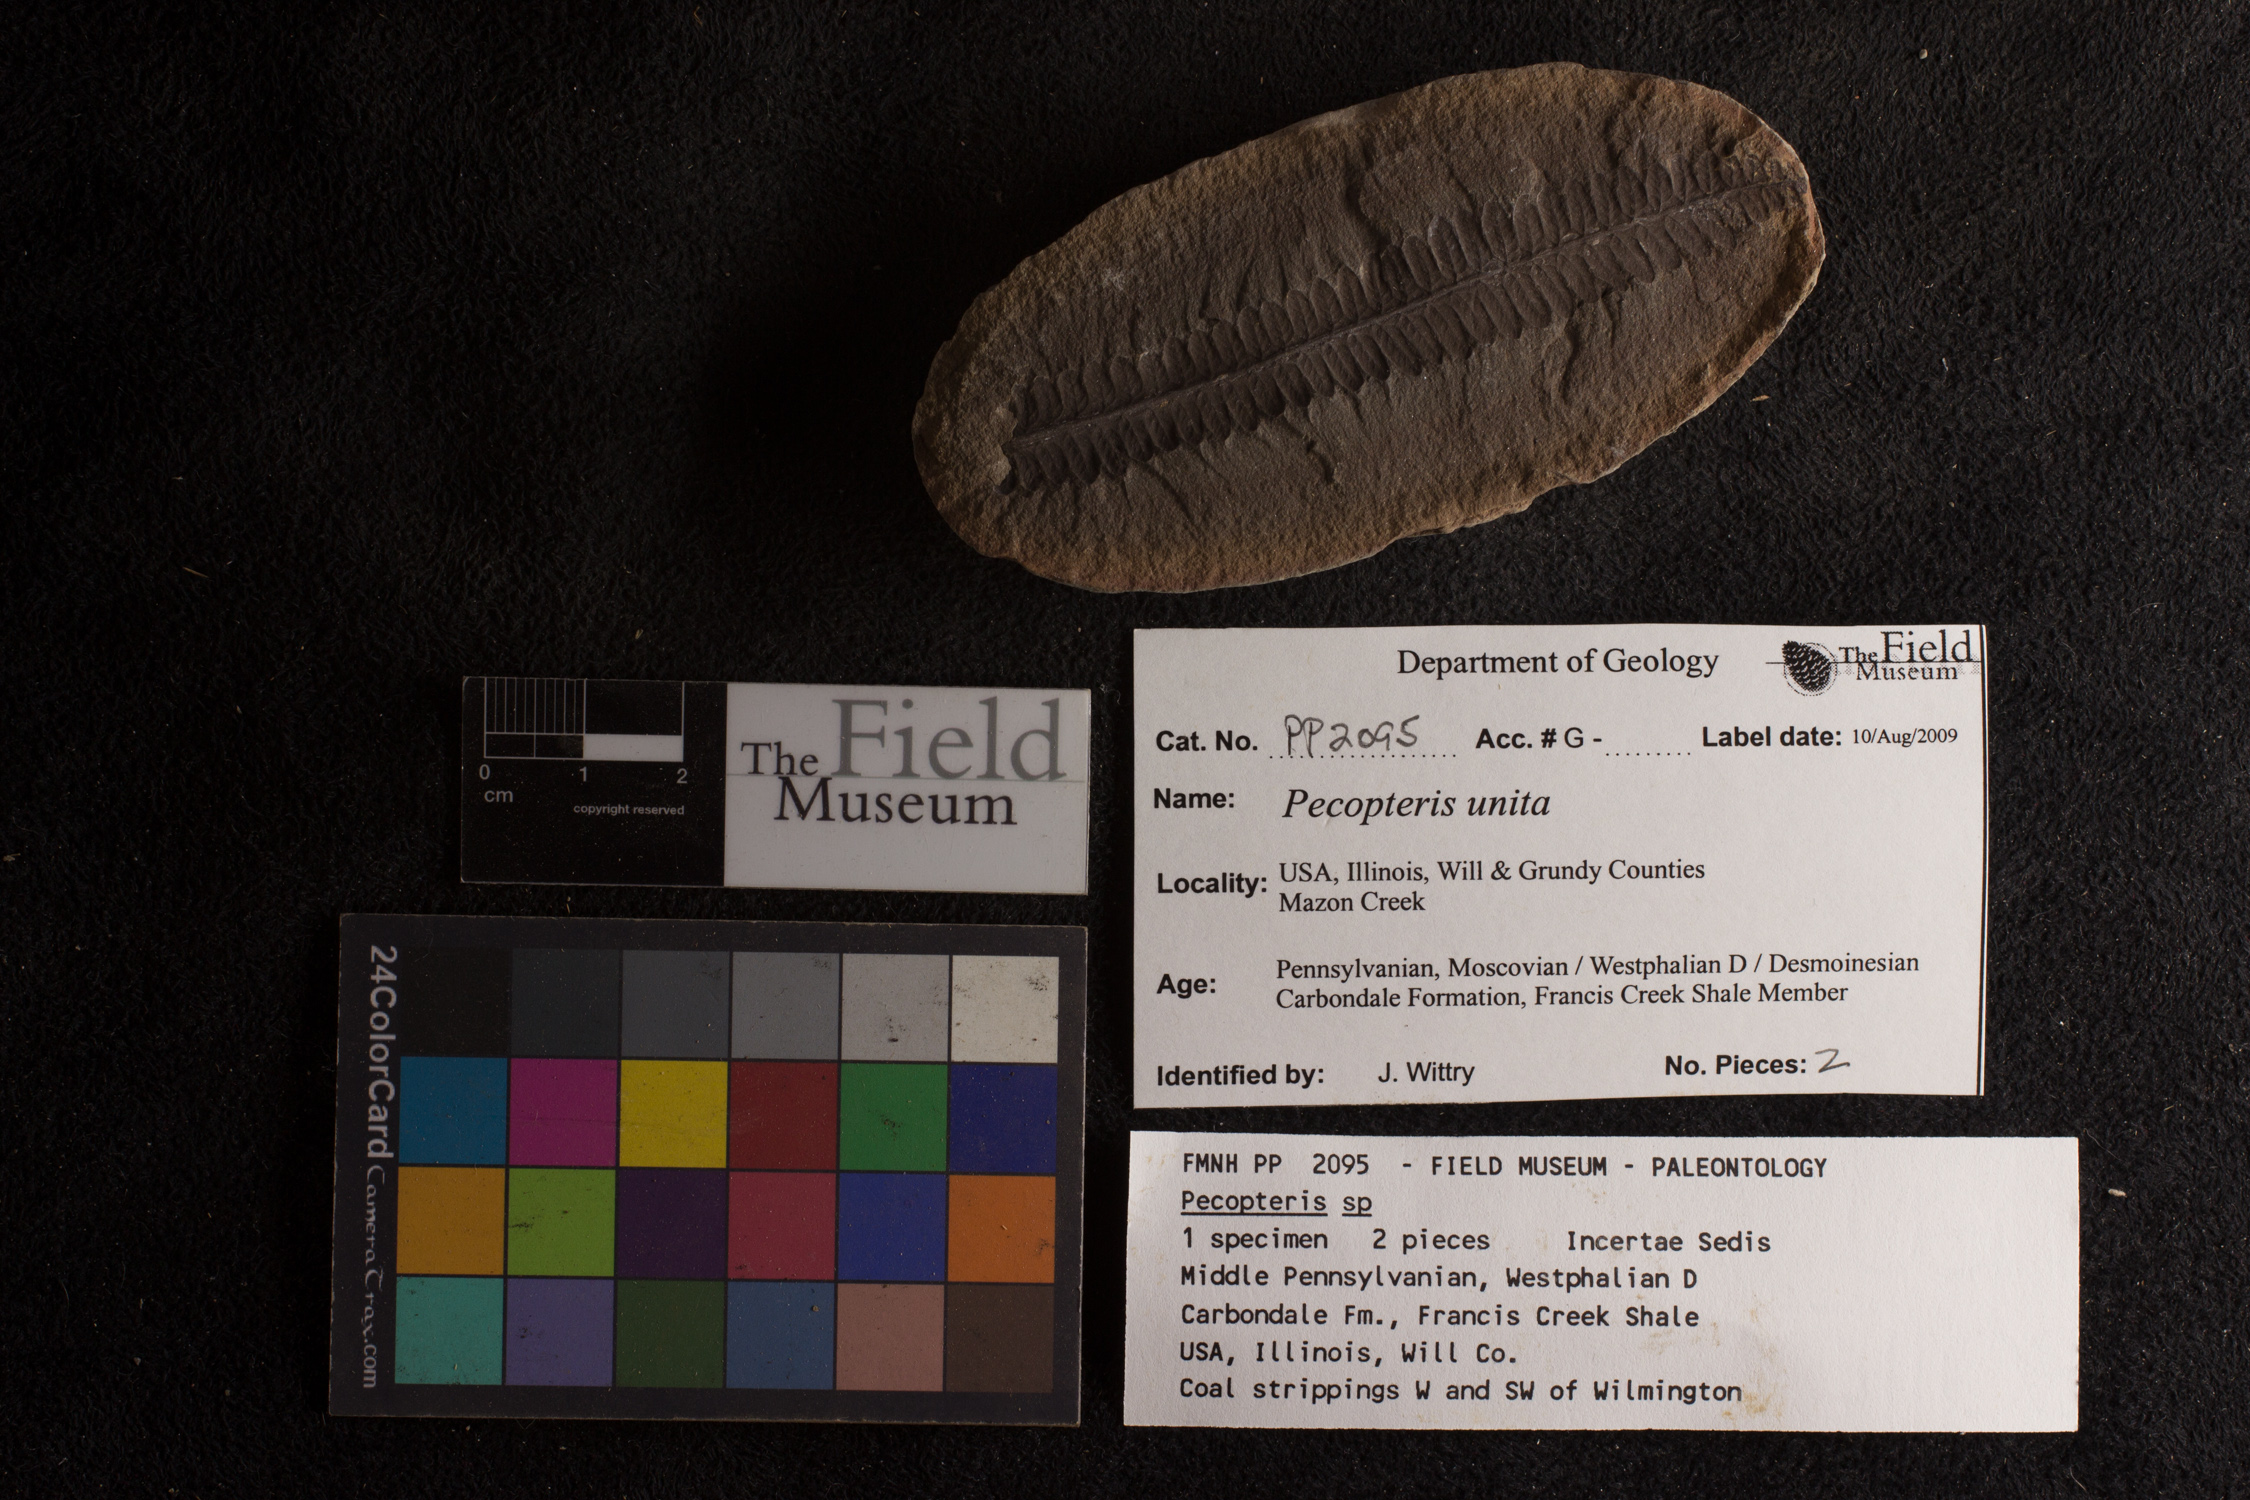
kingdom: Plantae
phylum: Tracheophyta
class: Polypodiopsida
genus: Diplazites
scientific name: Diplazites
